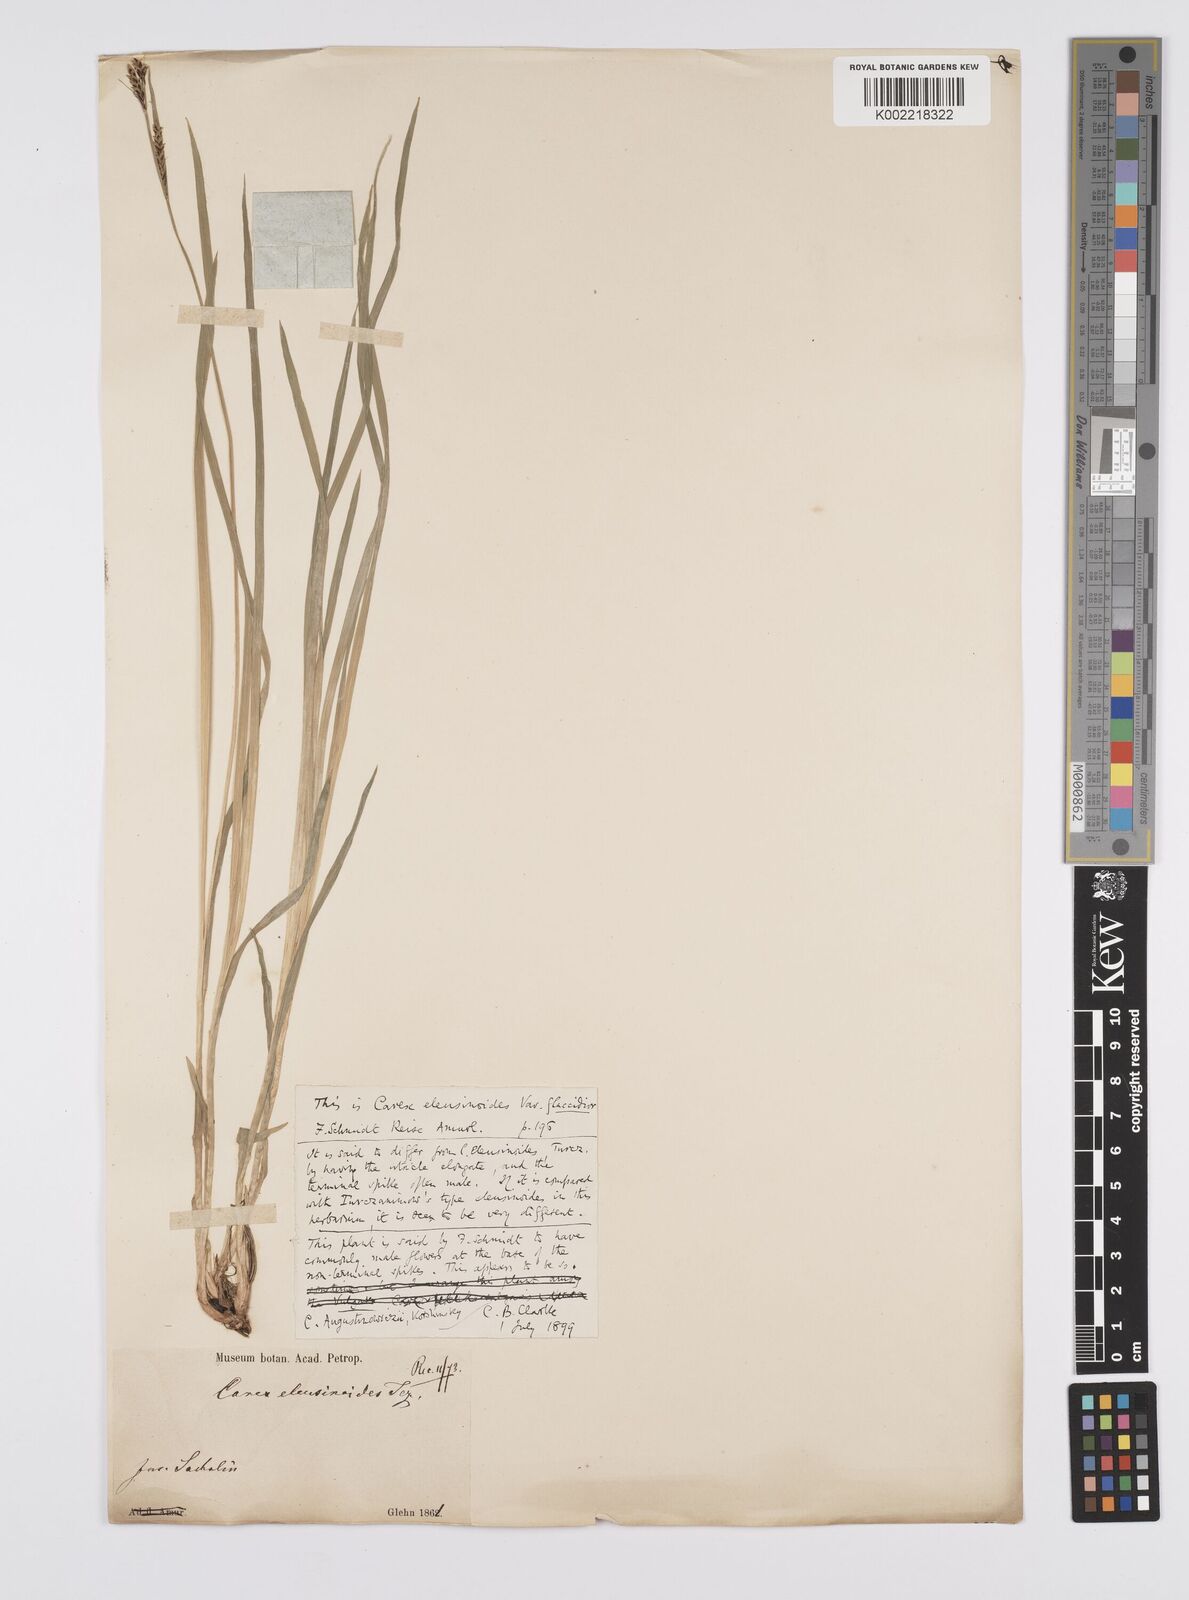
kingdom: Plantae
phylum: Tracheophyta
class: Liliopsida
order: Poales
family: Cyperaceae
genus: Carex
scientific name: Carex augustinowiczii
